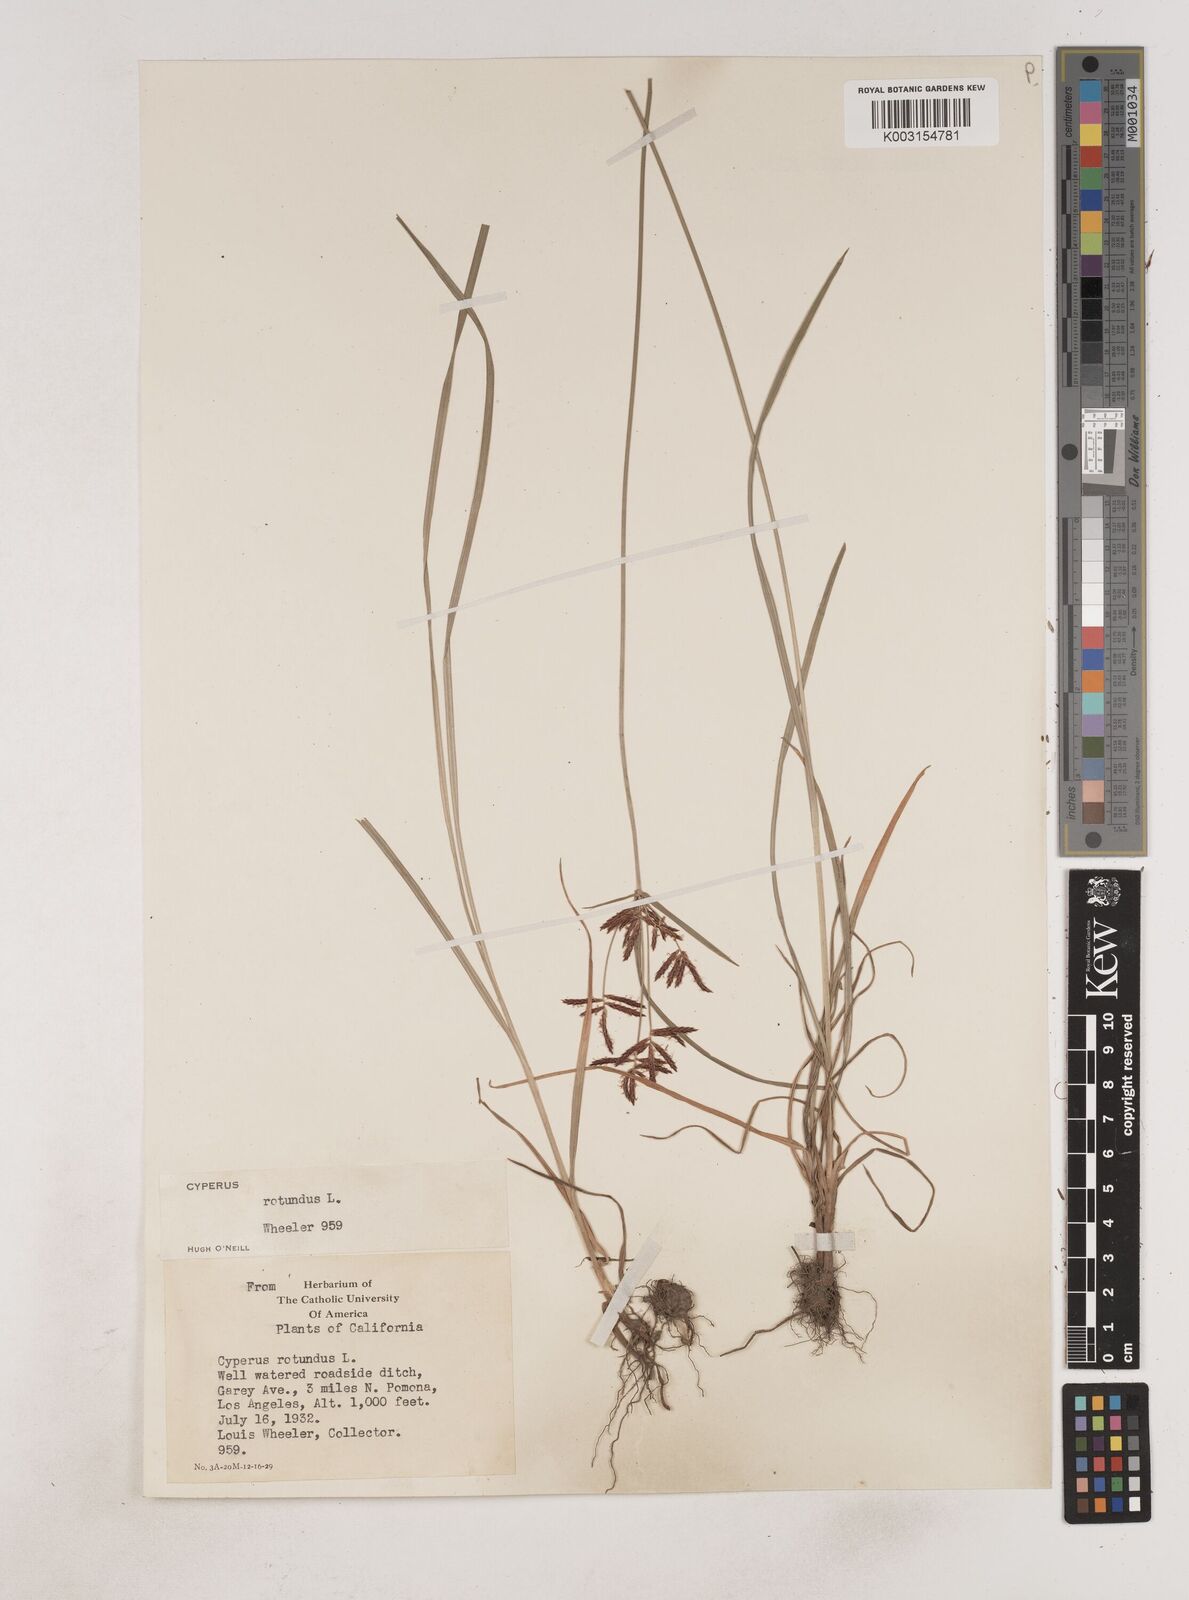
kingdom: Plantae
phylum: Tracheophyta
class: Liliopsida
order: Poales
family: Cyperaceae
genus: Cyperus
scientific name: Cyperus rotundus
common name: Nutgrass
